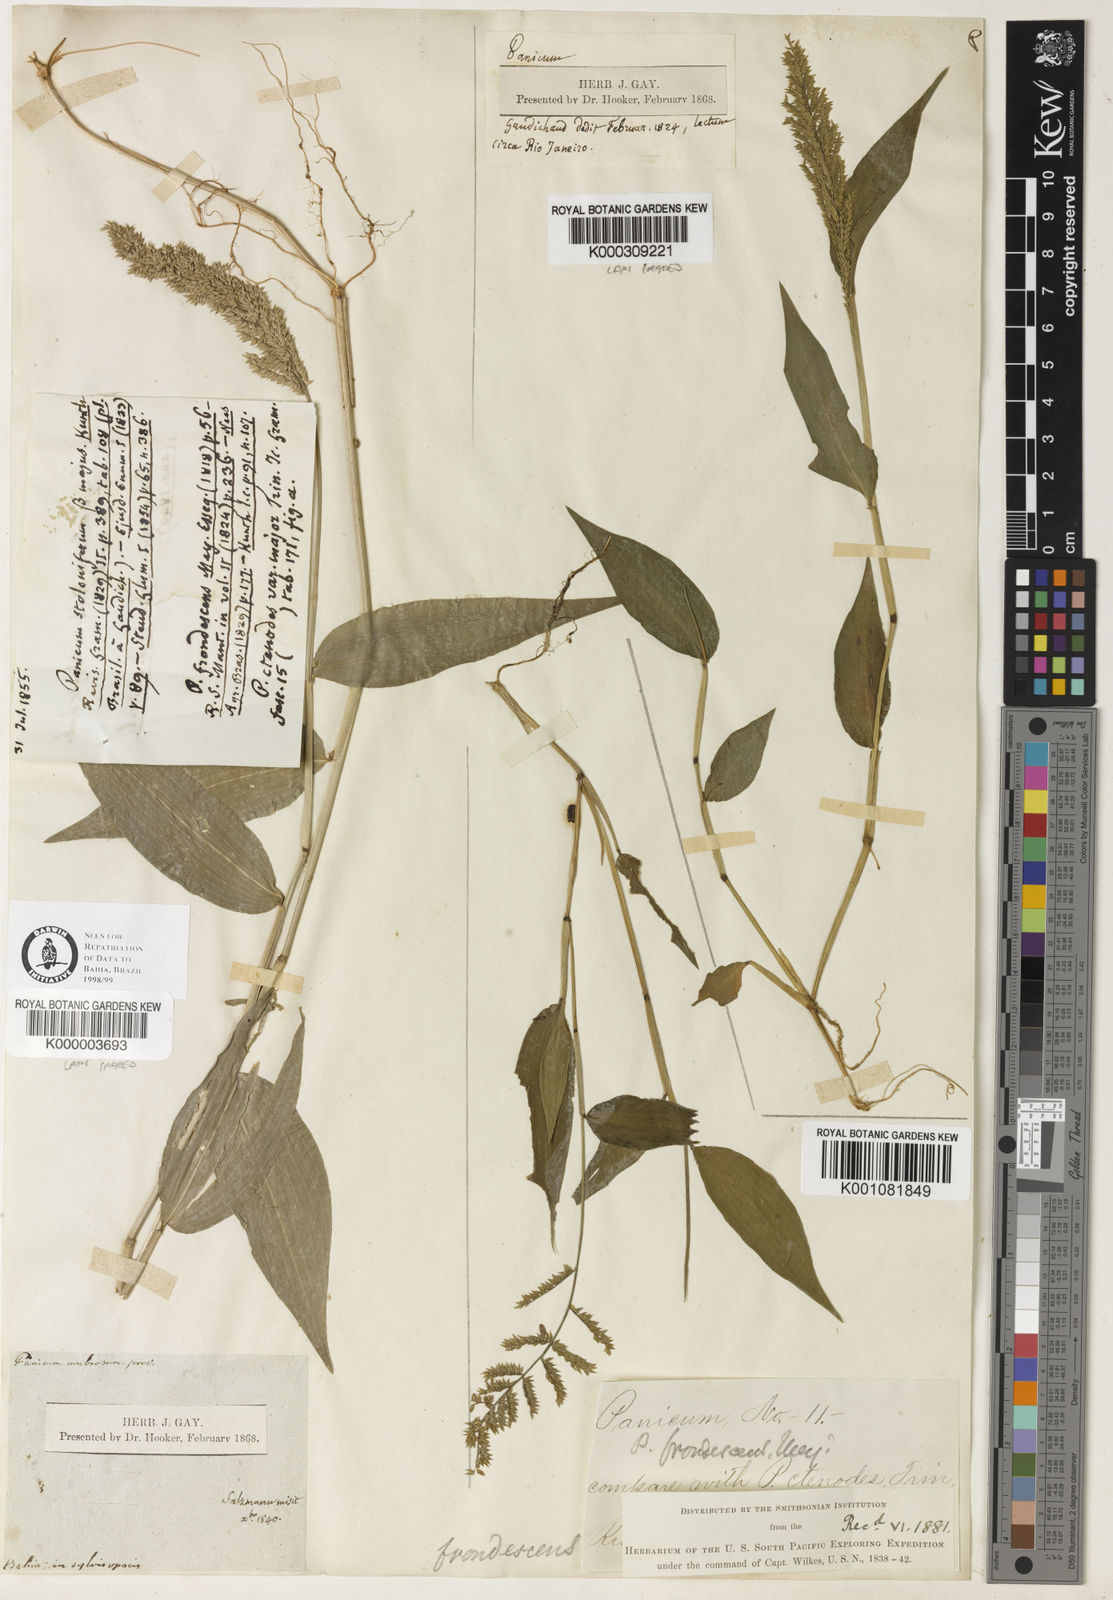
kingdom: Plantae
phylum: Tracheophyta
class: Liliopsida
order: Poales
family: Poaceae
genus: Ocellochloa
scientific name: Ocellochloa stolonifera
